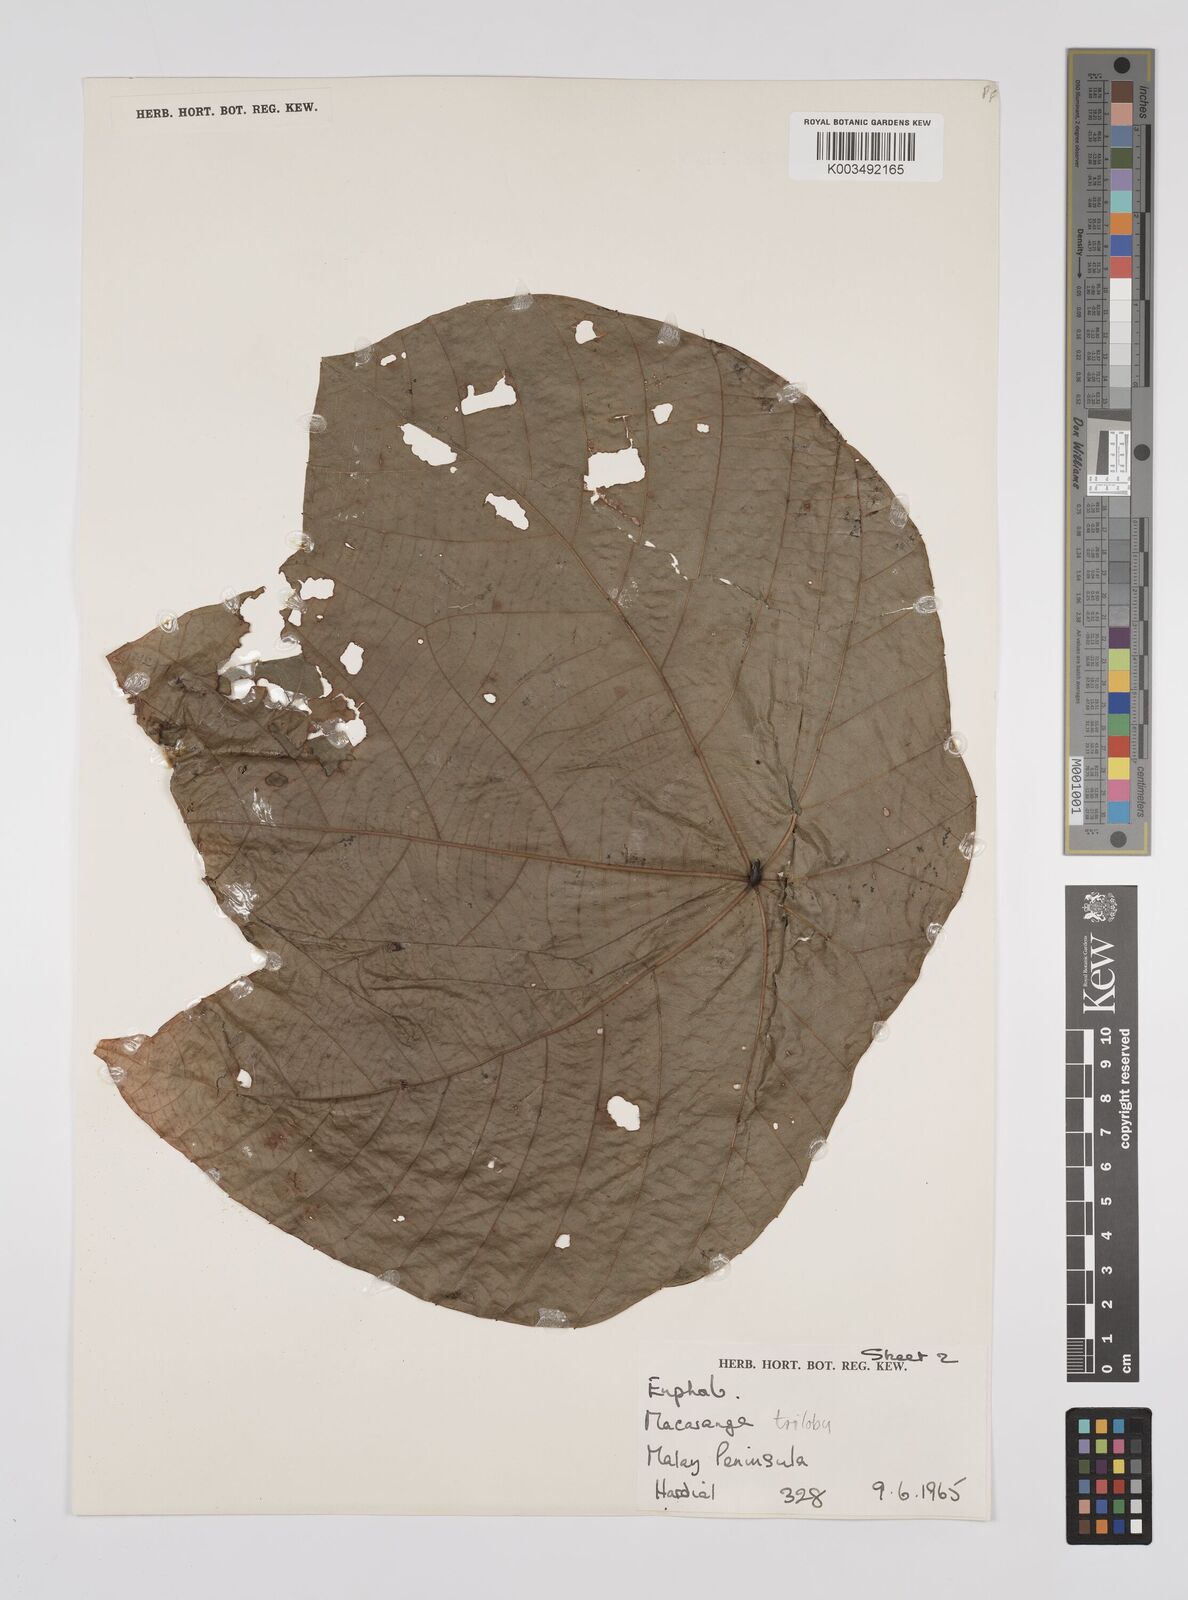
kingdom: Plantae
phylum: Tracheophyta
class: Magnoliopsida
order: Malpighiales
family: Euphorbiaceae
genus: Macaranga
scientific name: Macaranga triloba
